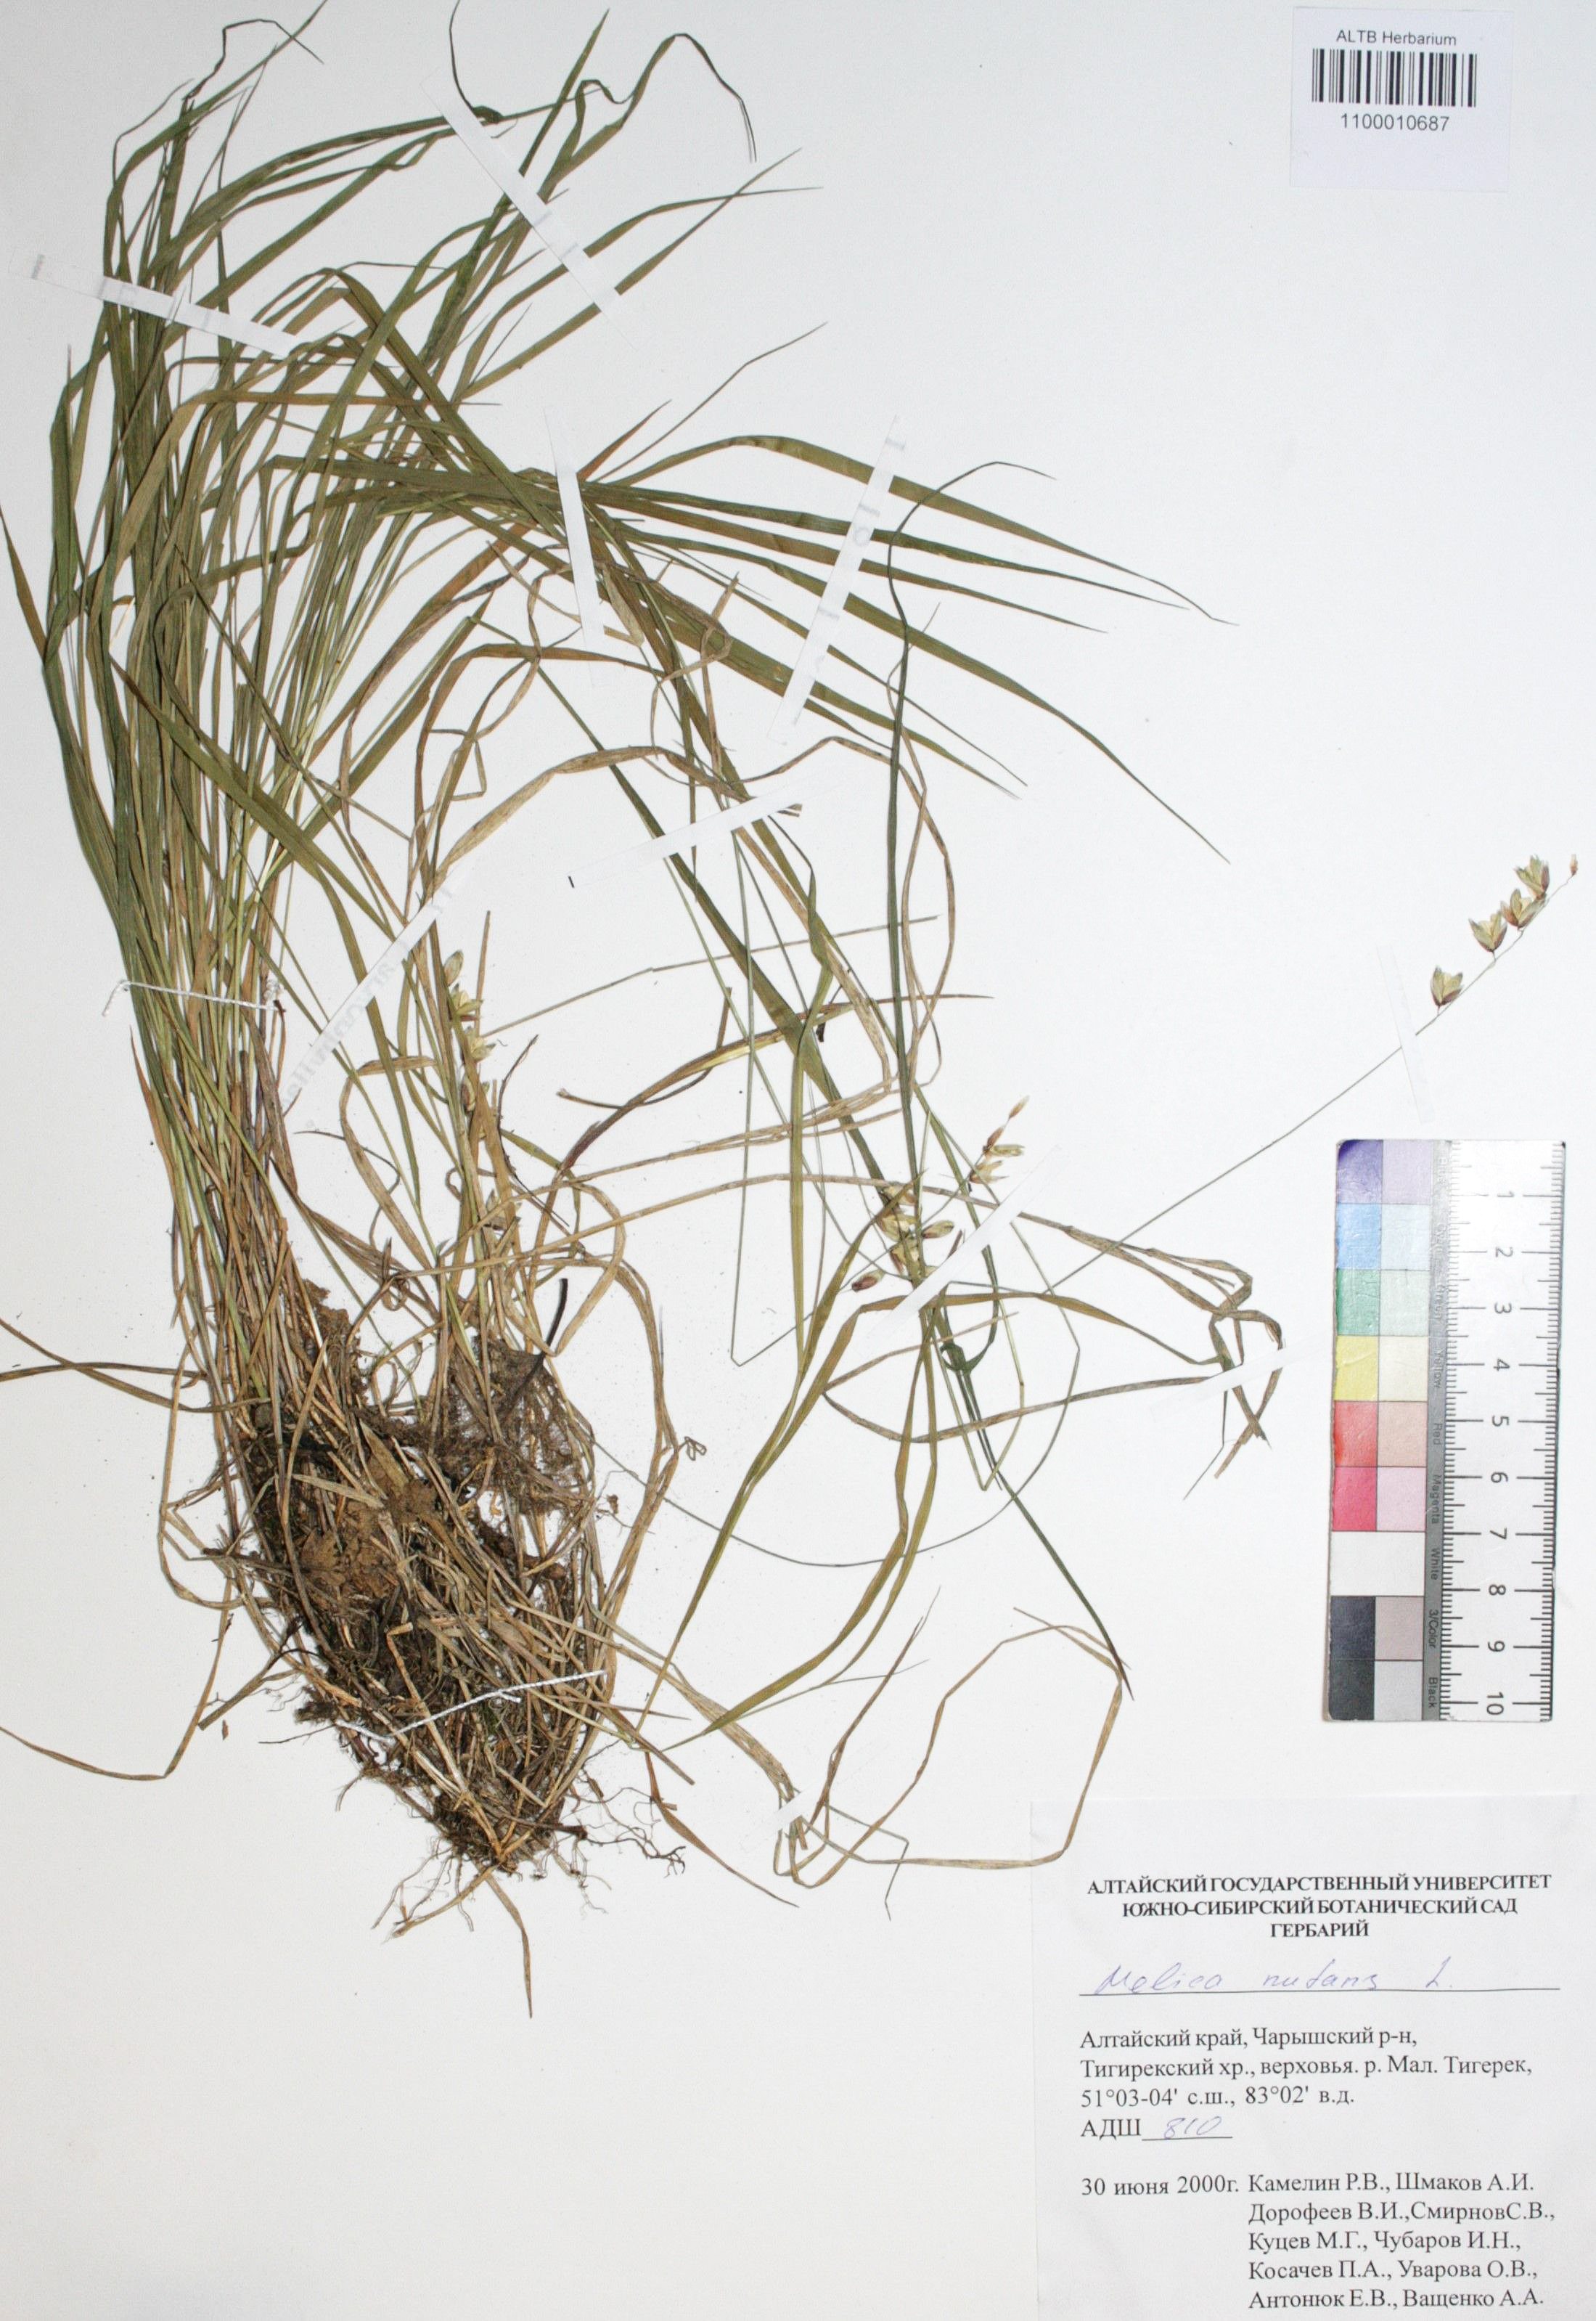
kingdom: Plantae
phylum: Tracheophyta
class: Liliopsida
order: Poales
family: Poaceae
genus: Melica
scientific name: Melica nutans
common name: Mountain melick
